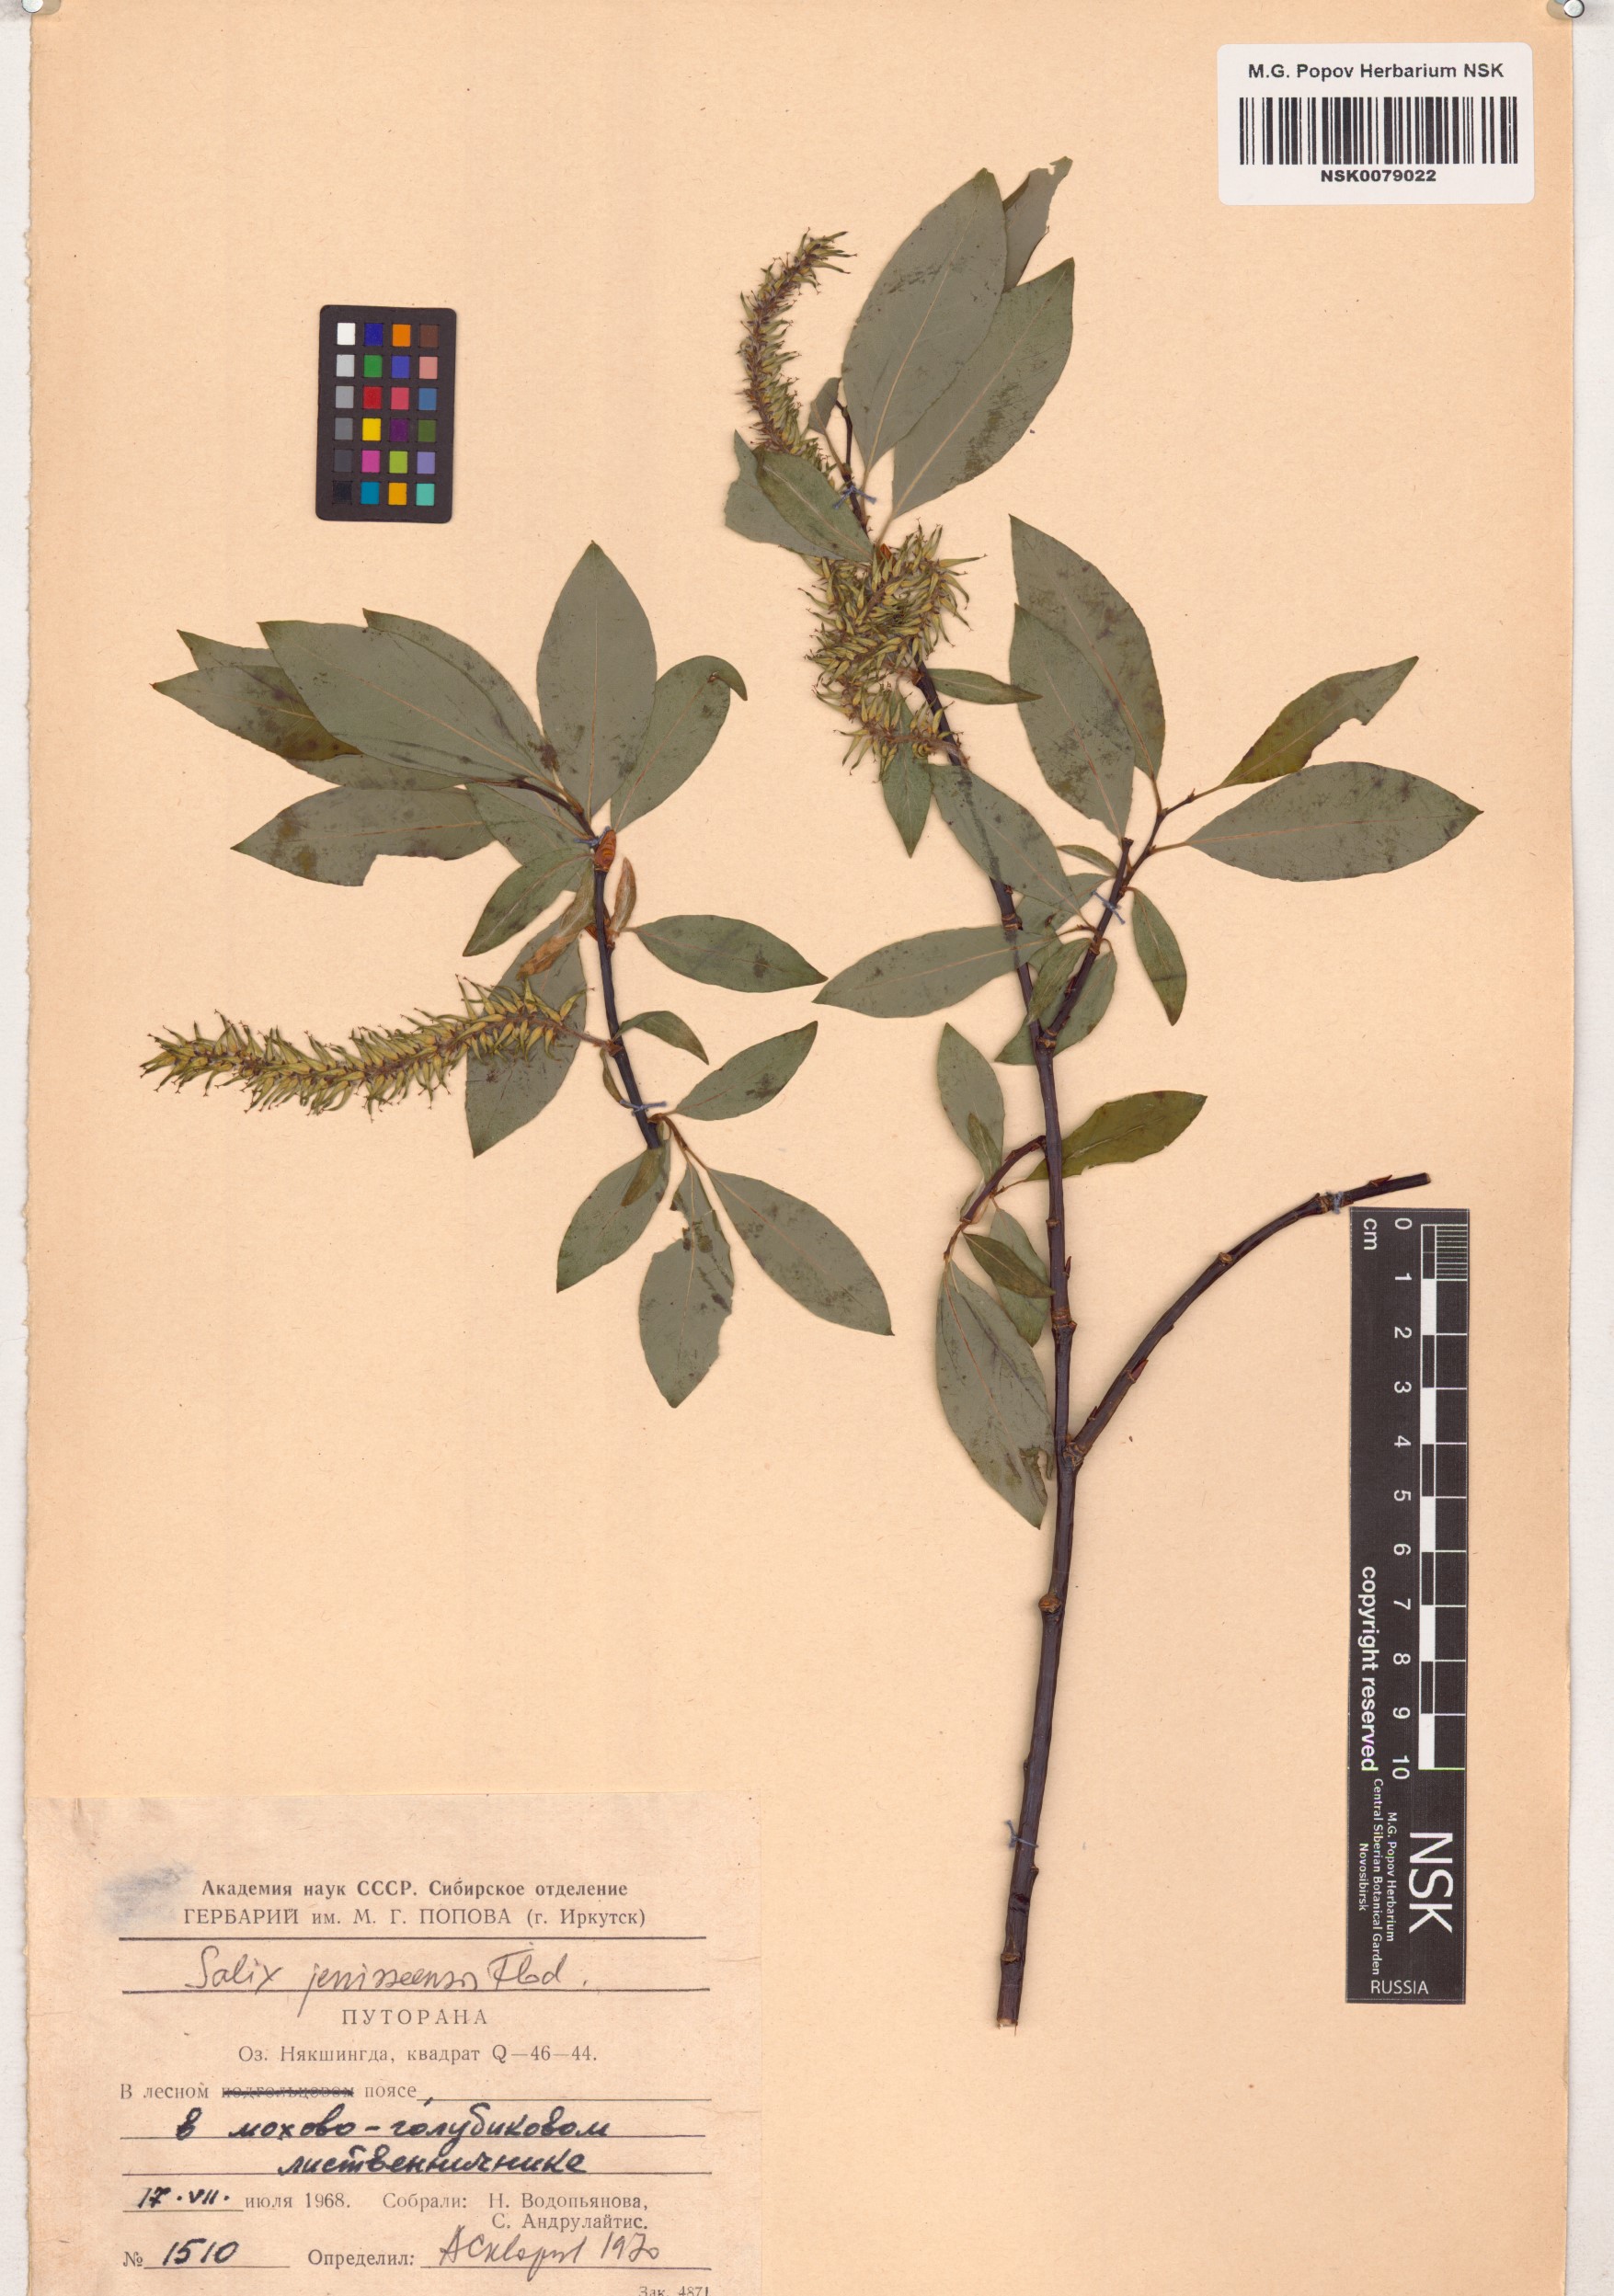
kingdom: Plantae
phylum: Tracheophyta
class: Magnoliopsida
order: Malpighiales
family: Salicaceae
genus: Salix
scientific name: Salix jenisseensis
